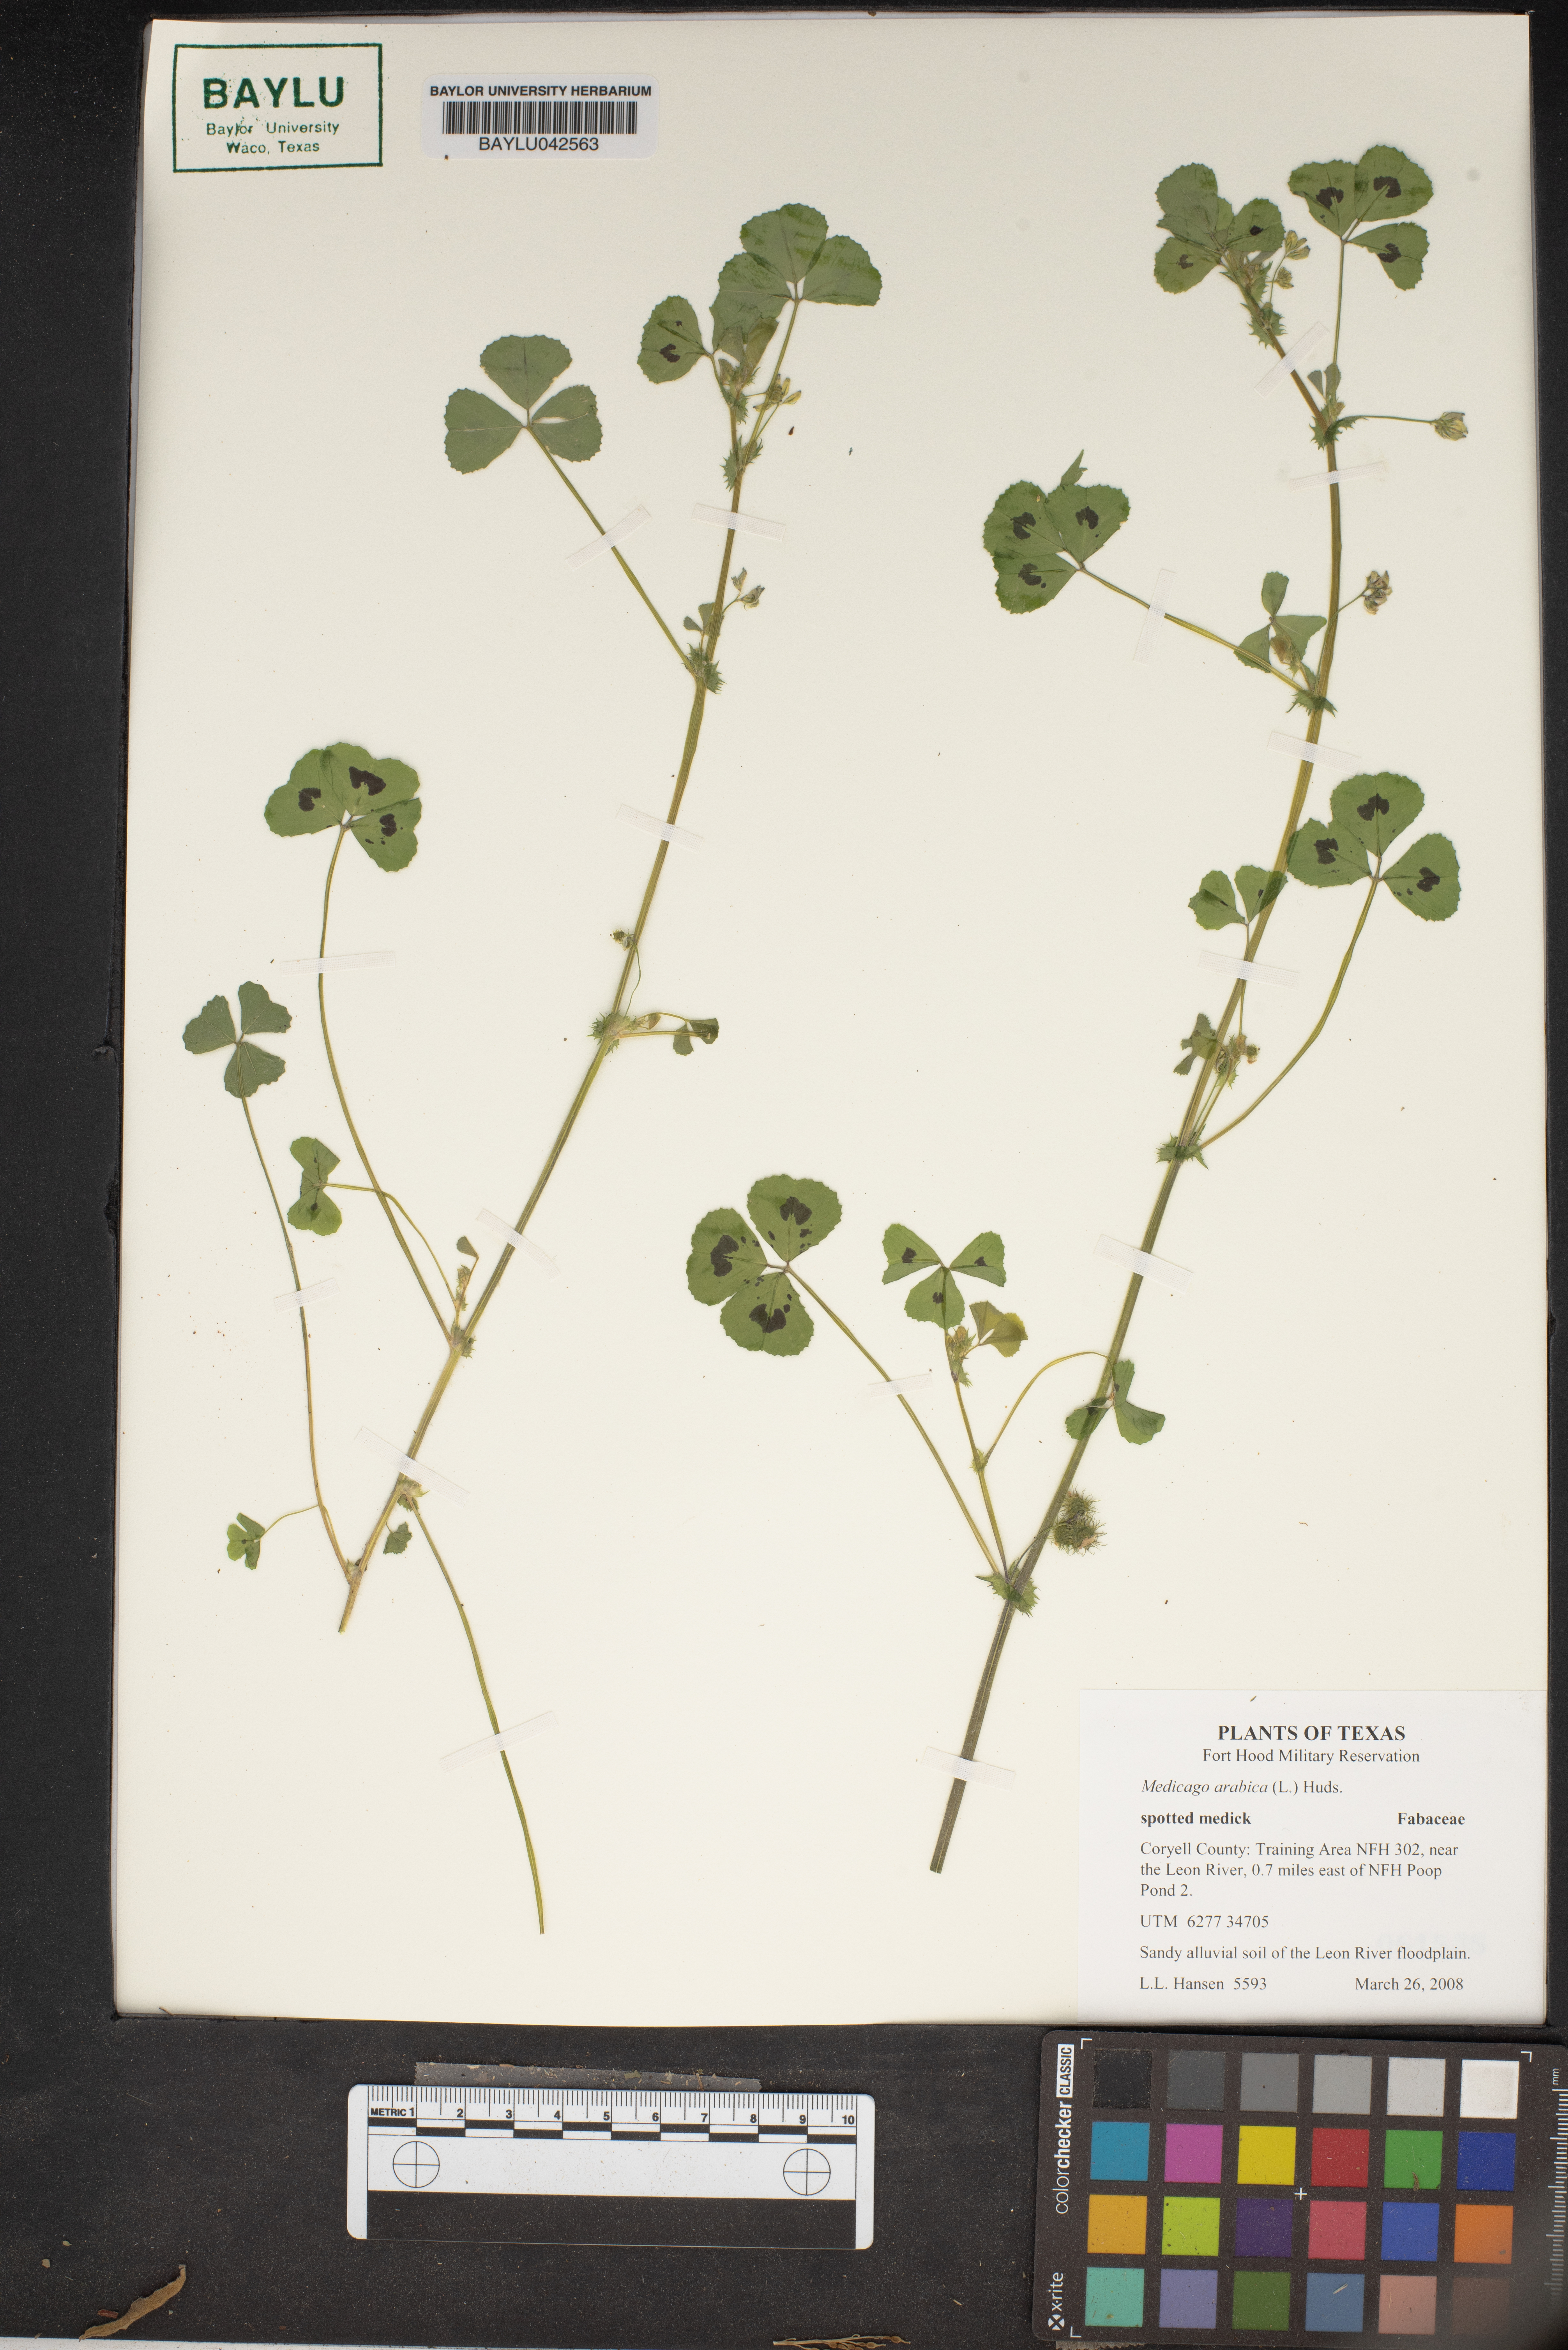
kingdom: Plantae
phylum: Tracheophyta
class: Magnoliopsida
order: Fabales
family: Fabaceae
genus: Medicago
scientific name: Medicago arabica
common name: Spotted medick
